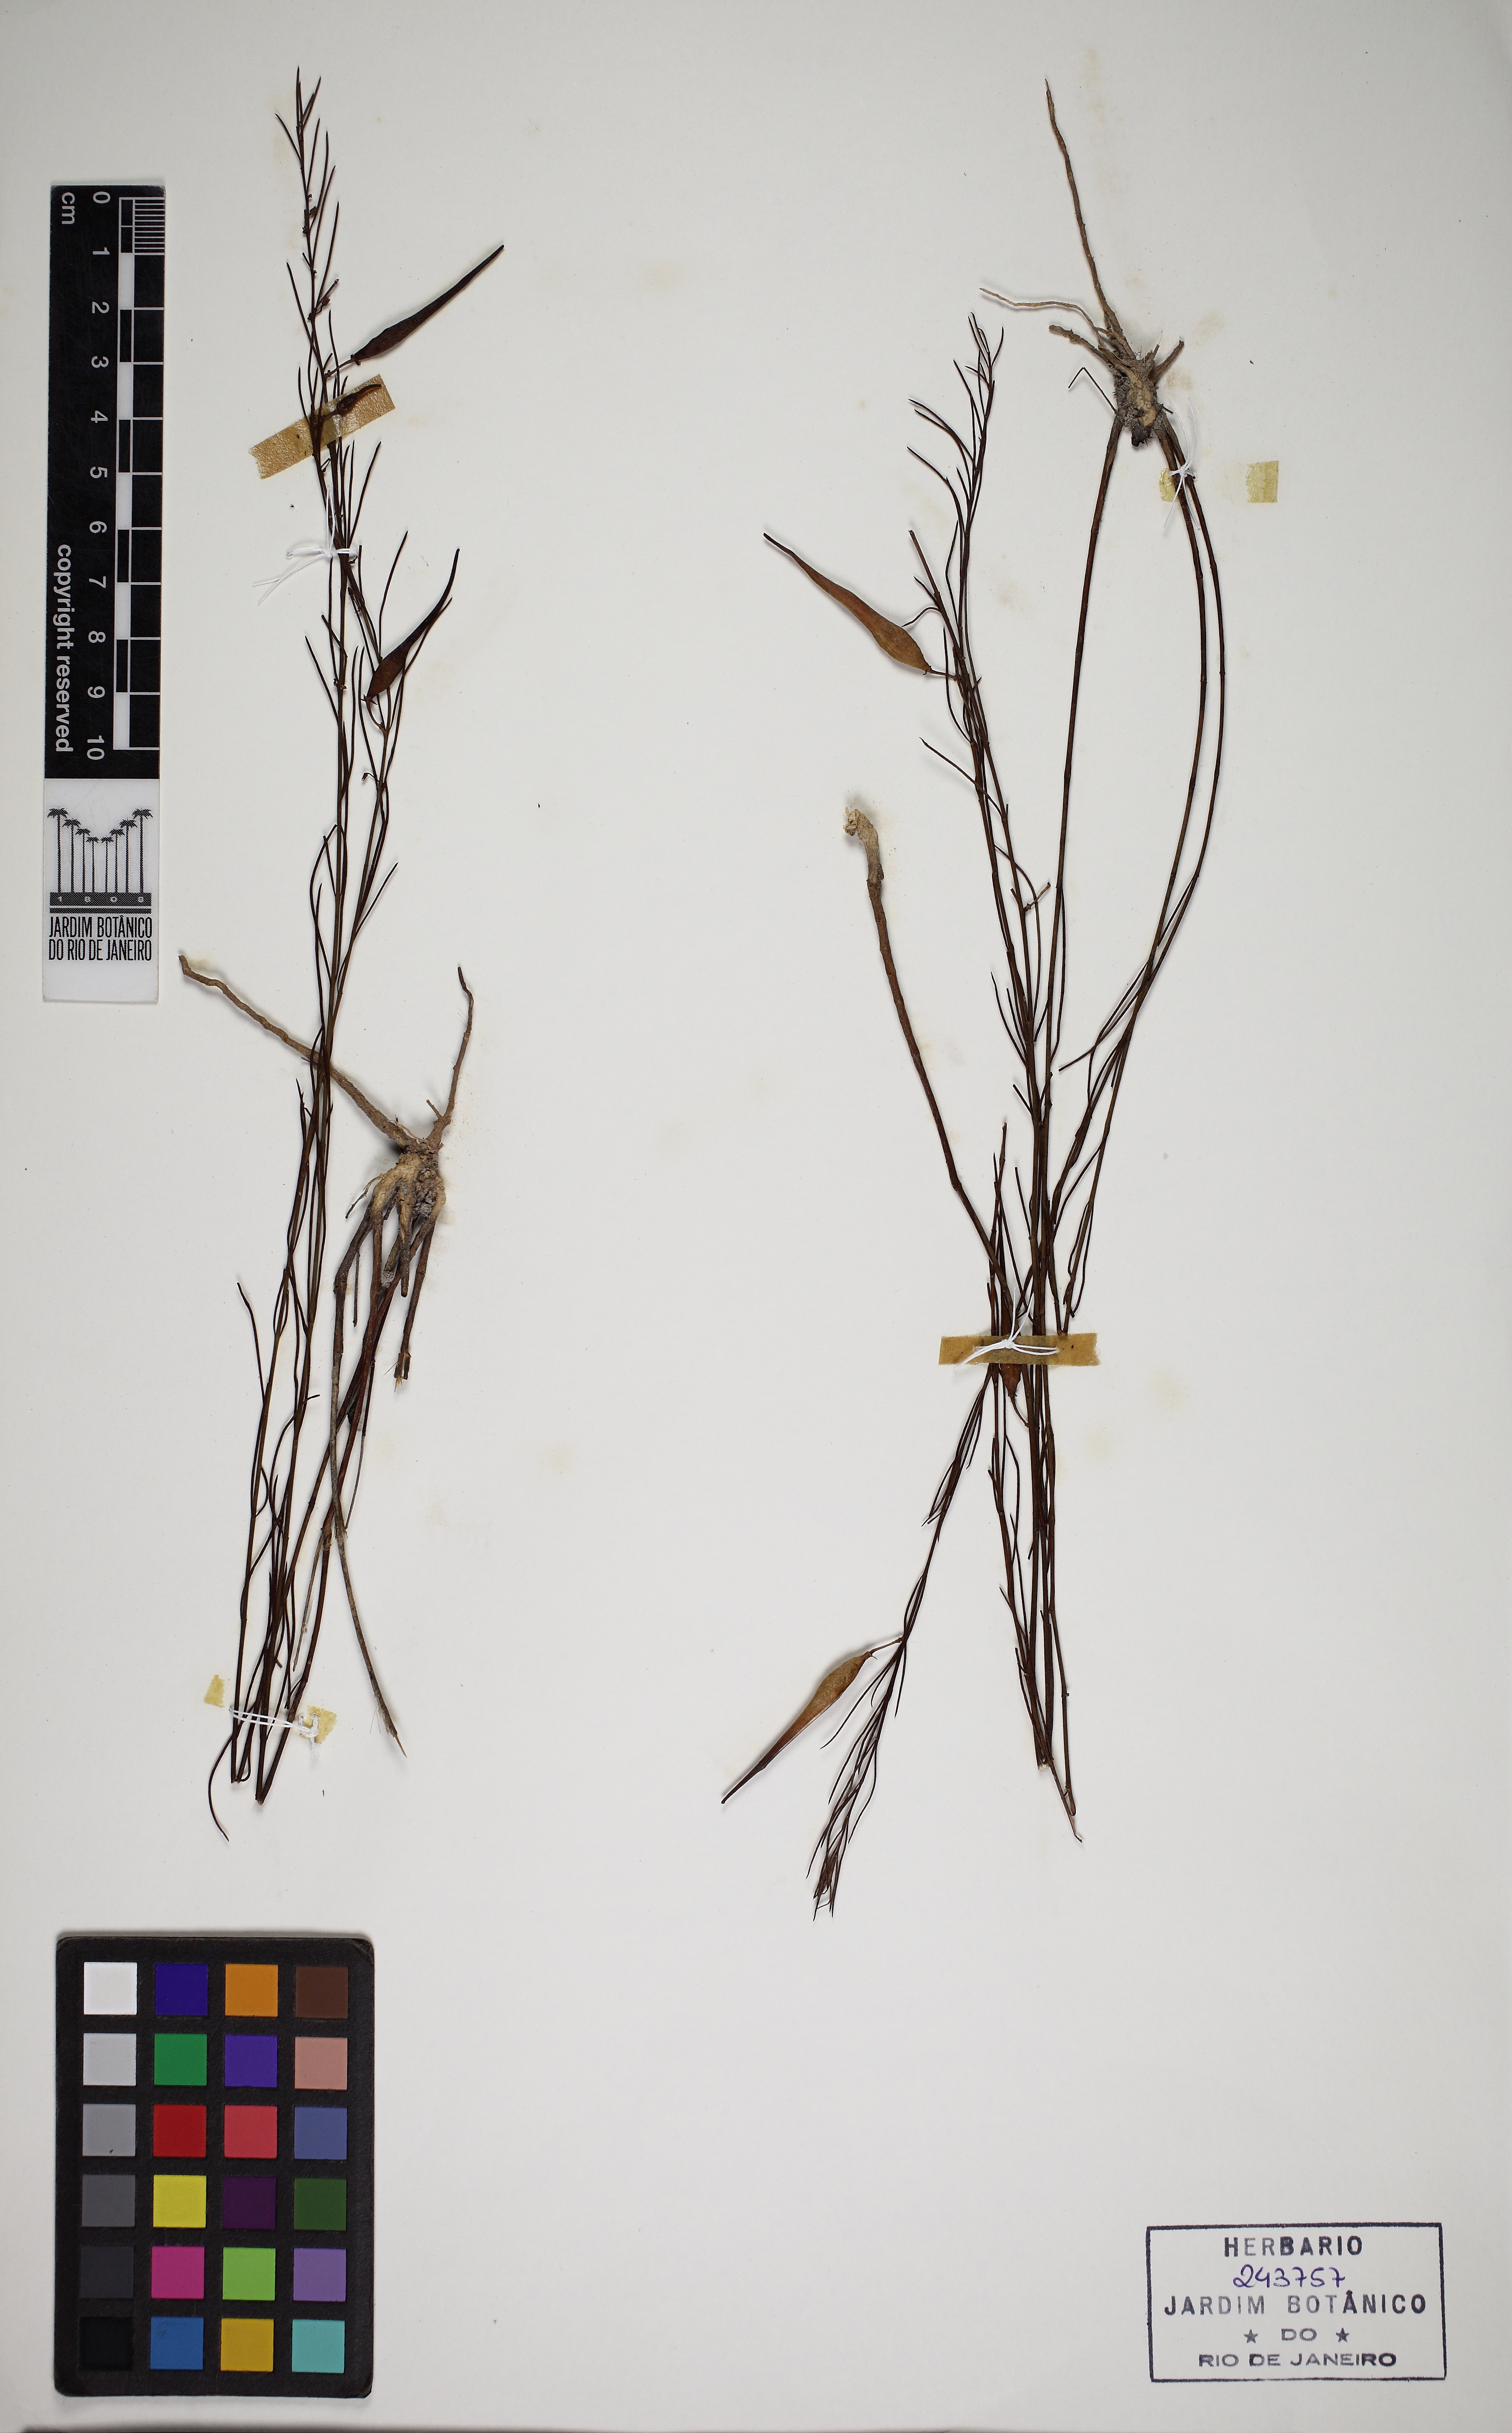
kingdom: Plantae
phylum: Tracheophyta
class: Magnoliopsida
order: Gentianales
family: Apocynaceae
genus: Hemipogon
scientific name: Hemipogon hemipogonoides
